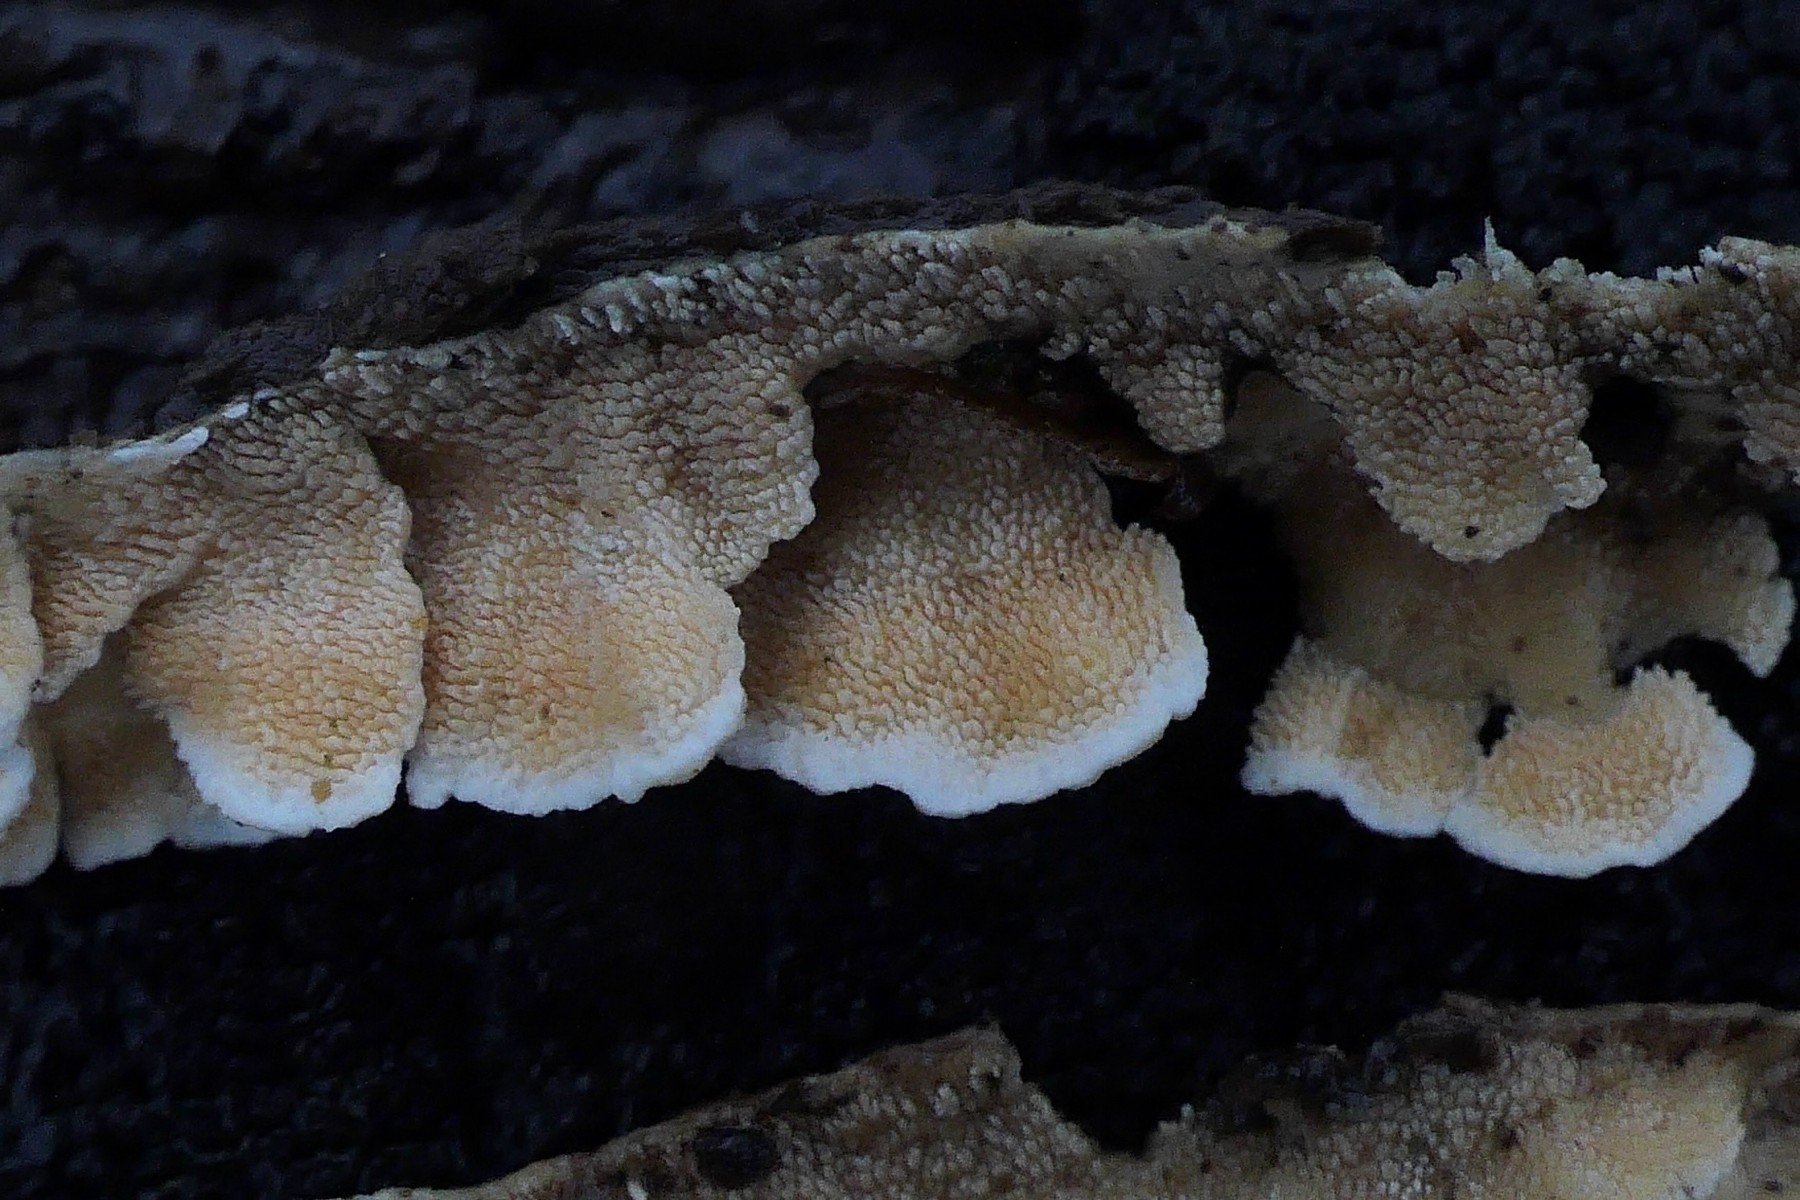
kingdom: Fungi
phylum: Basidiomycota
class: Agaricomycetes
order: Polyporales
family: Steccherinaceae
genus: Steccherinum
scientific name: Steccherinum ochraceum
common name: almindelig skønpig
